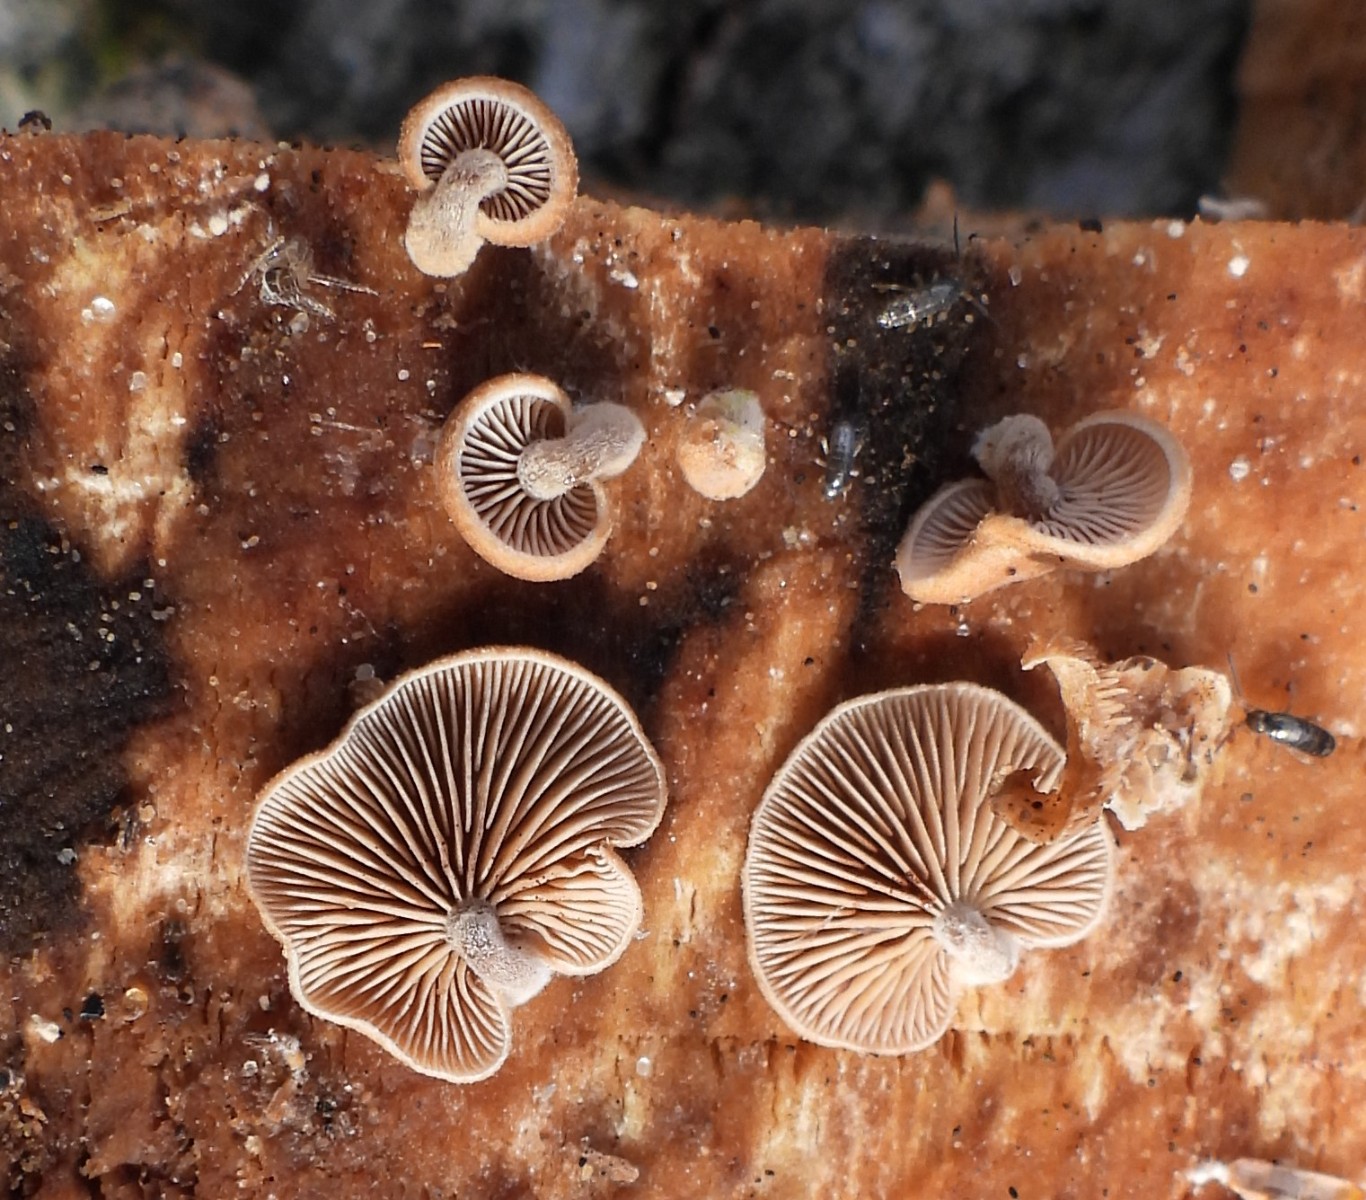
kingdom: Fungi
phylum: Basidiomycota
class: Agaricomycetes
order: Agaricales
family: Strophariaceae
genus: Deconica
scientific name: Deconica horizontalis
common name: ved-stråhat
